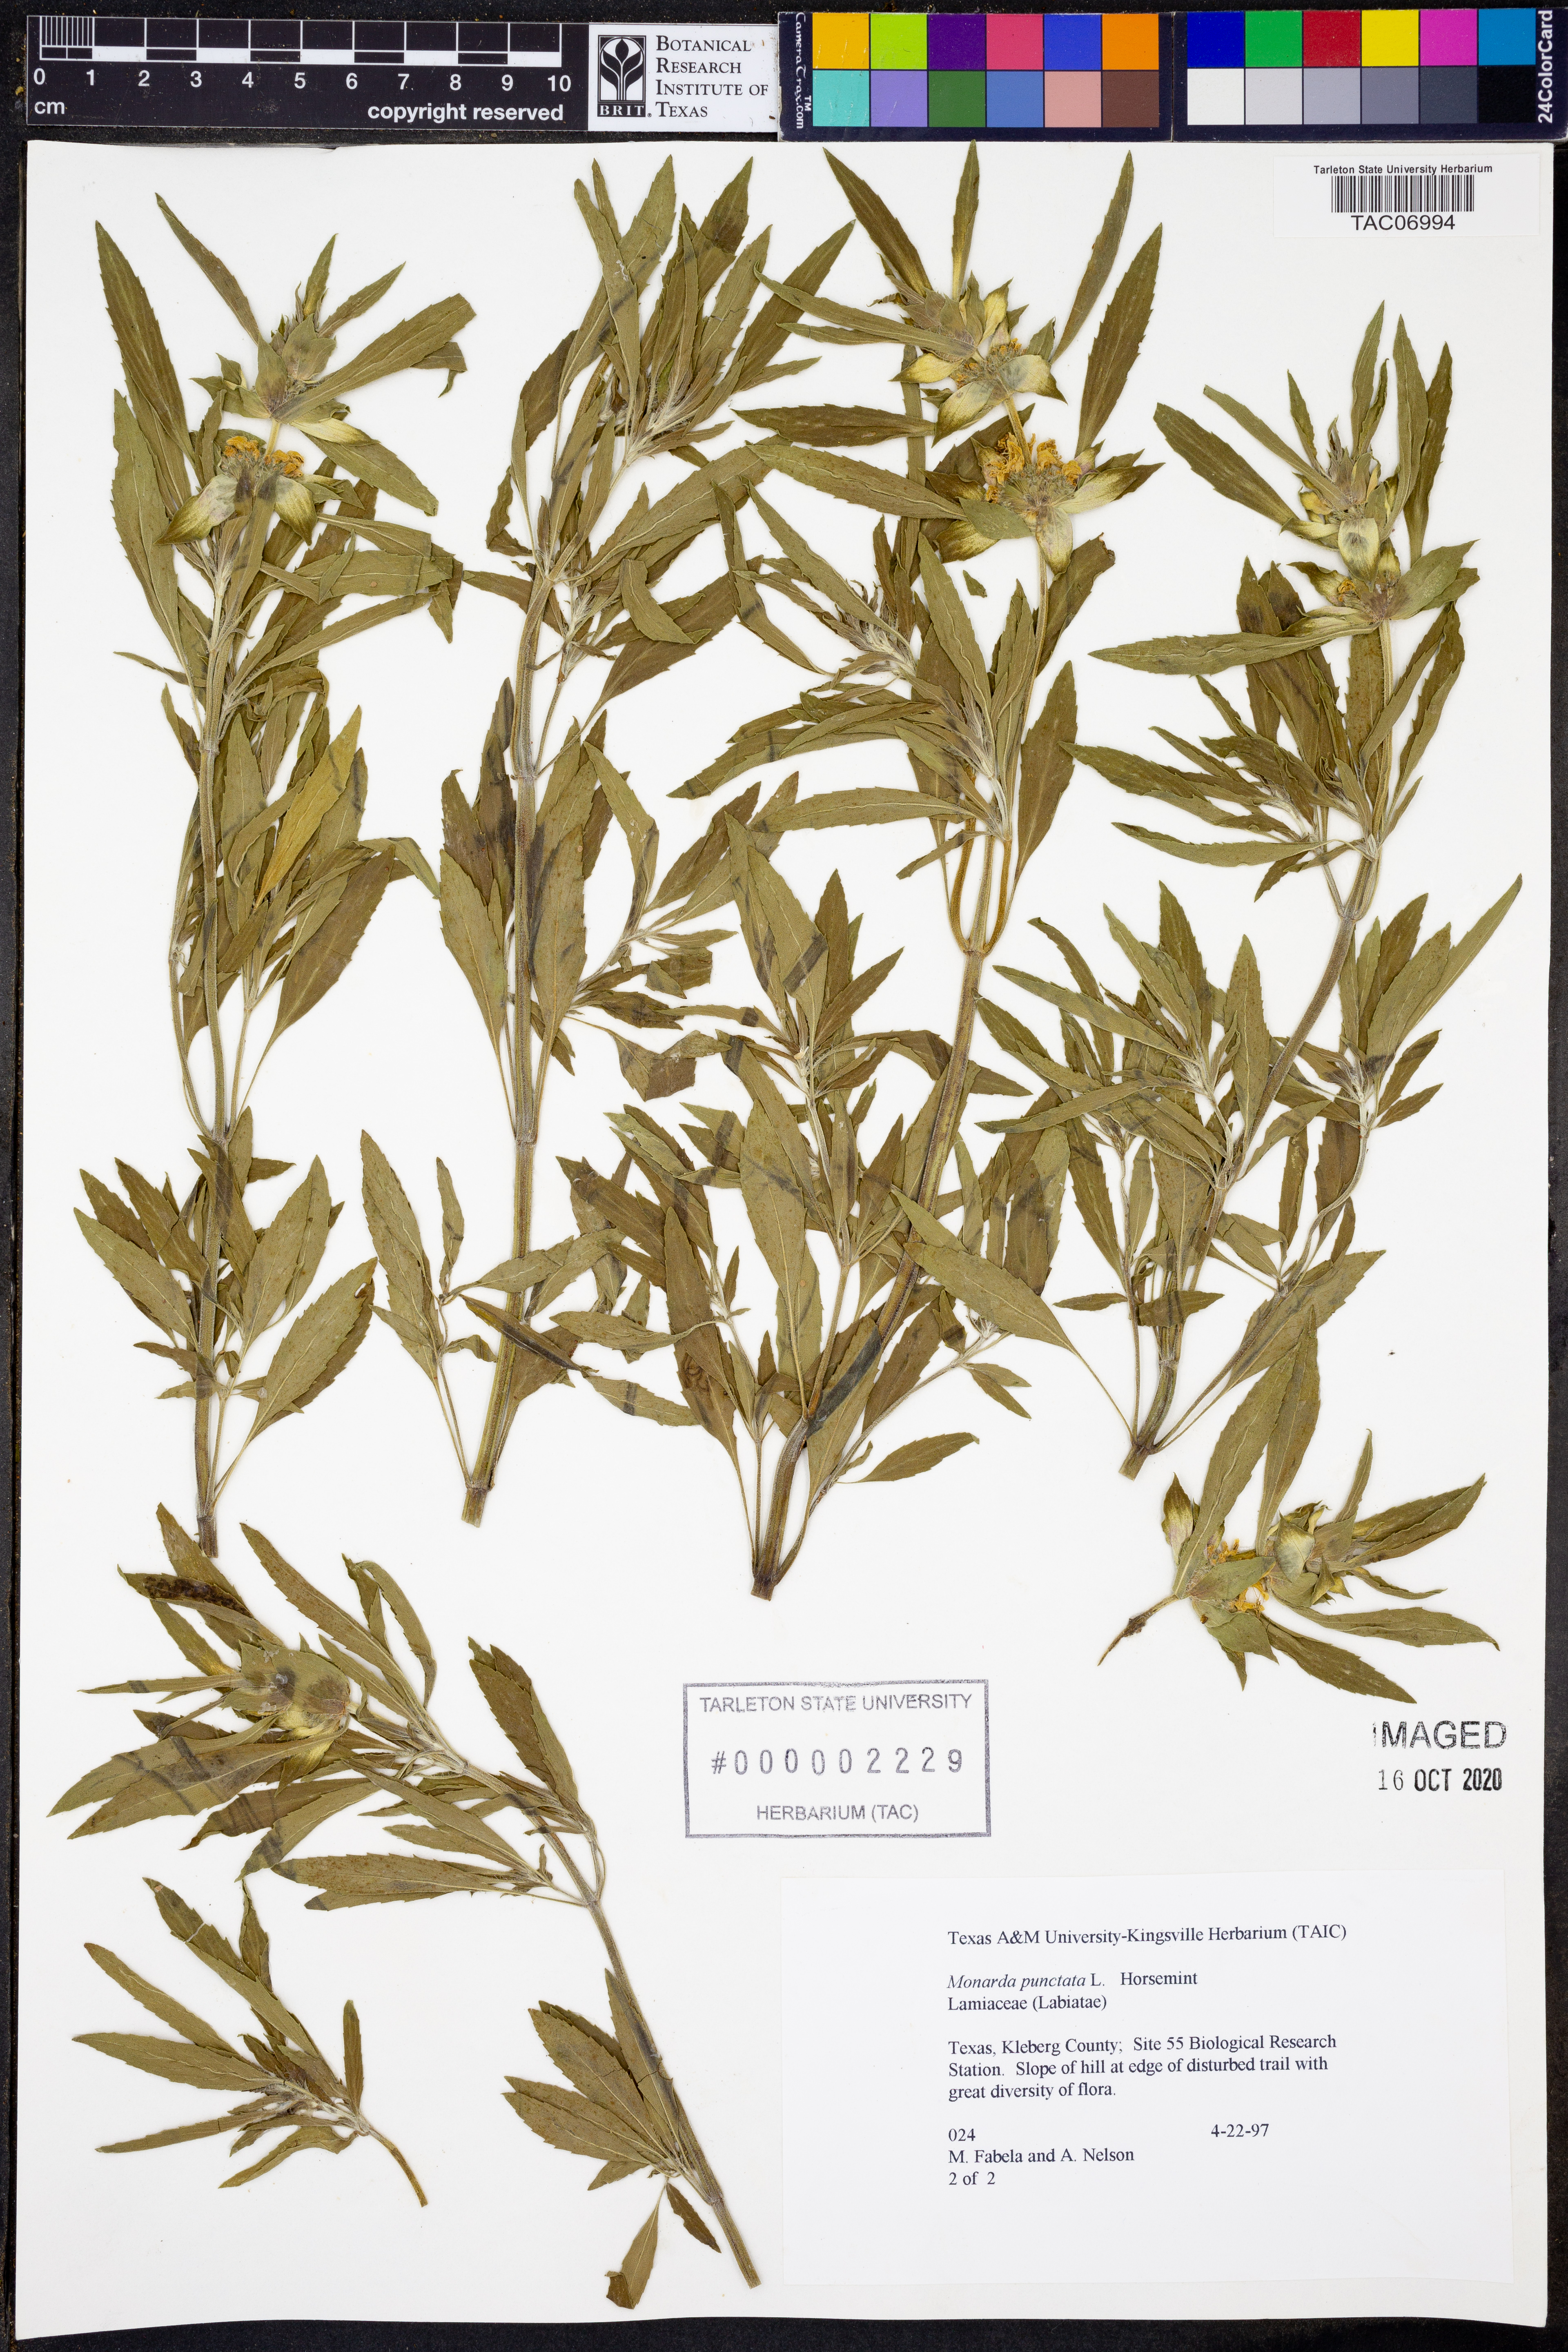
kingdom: Plantae
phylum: Tracheophyta
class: Magnoliopsida
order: Lamiales
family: Lamiaceae
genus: Monarda
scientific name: Monarda punctata
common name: Dotted monarda
